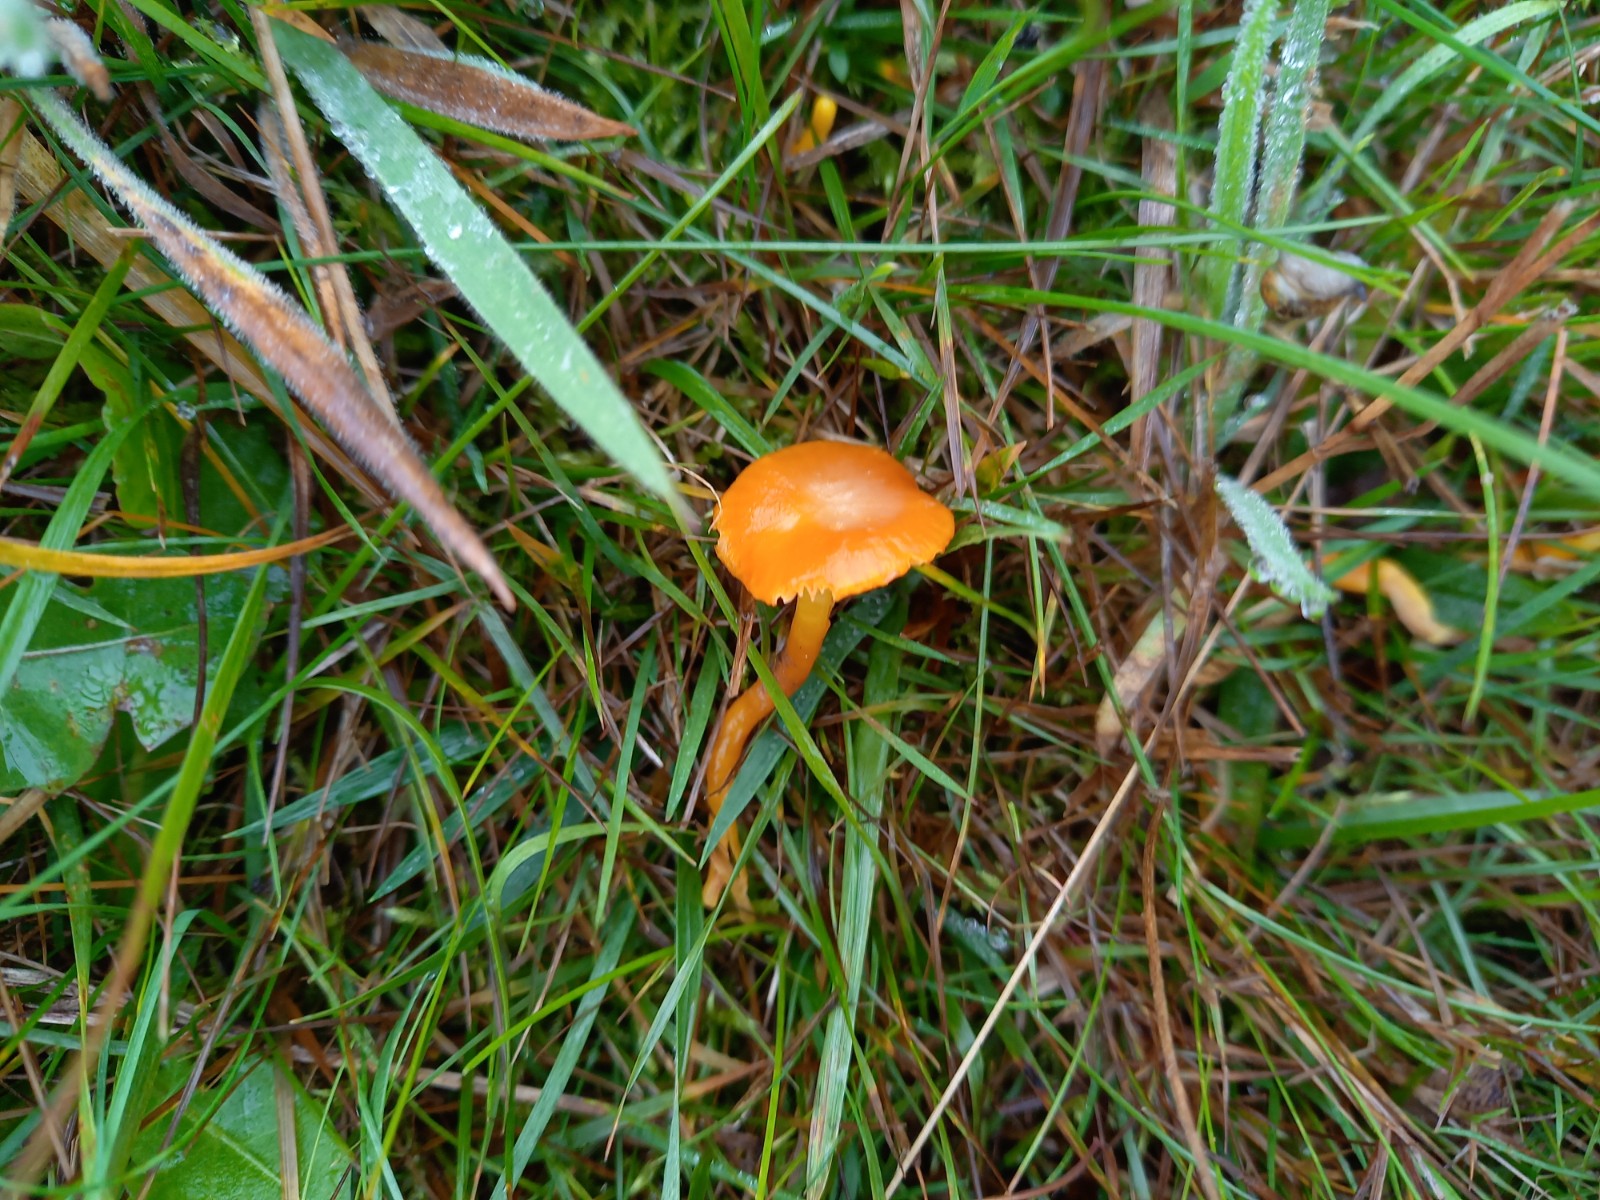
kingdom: Fungi
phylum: Basidiomycota
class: Agaricomycetes
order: Agaricales
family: Hygrophoraceae
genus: Hygrocybe
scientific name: Hygrocybe ceracea
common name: voksgul vokshat
